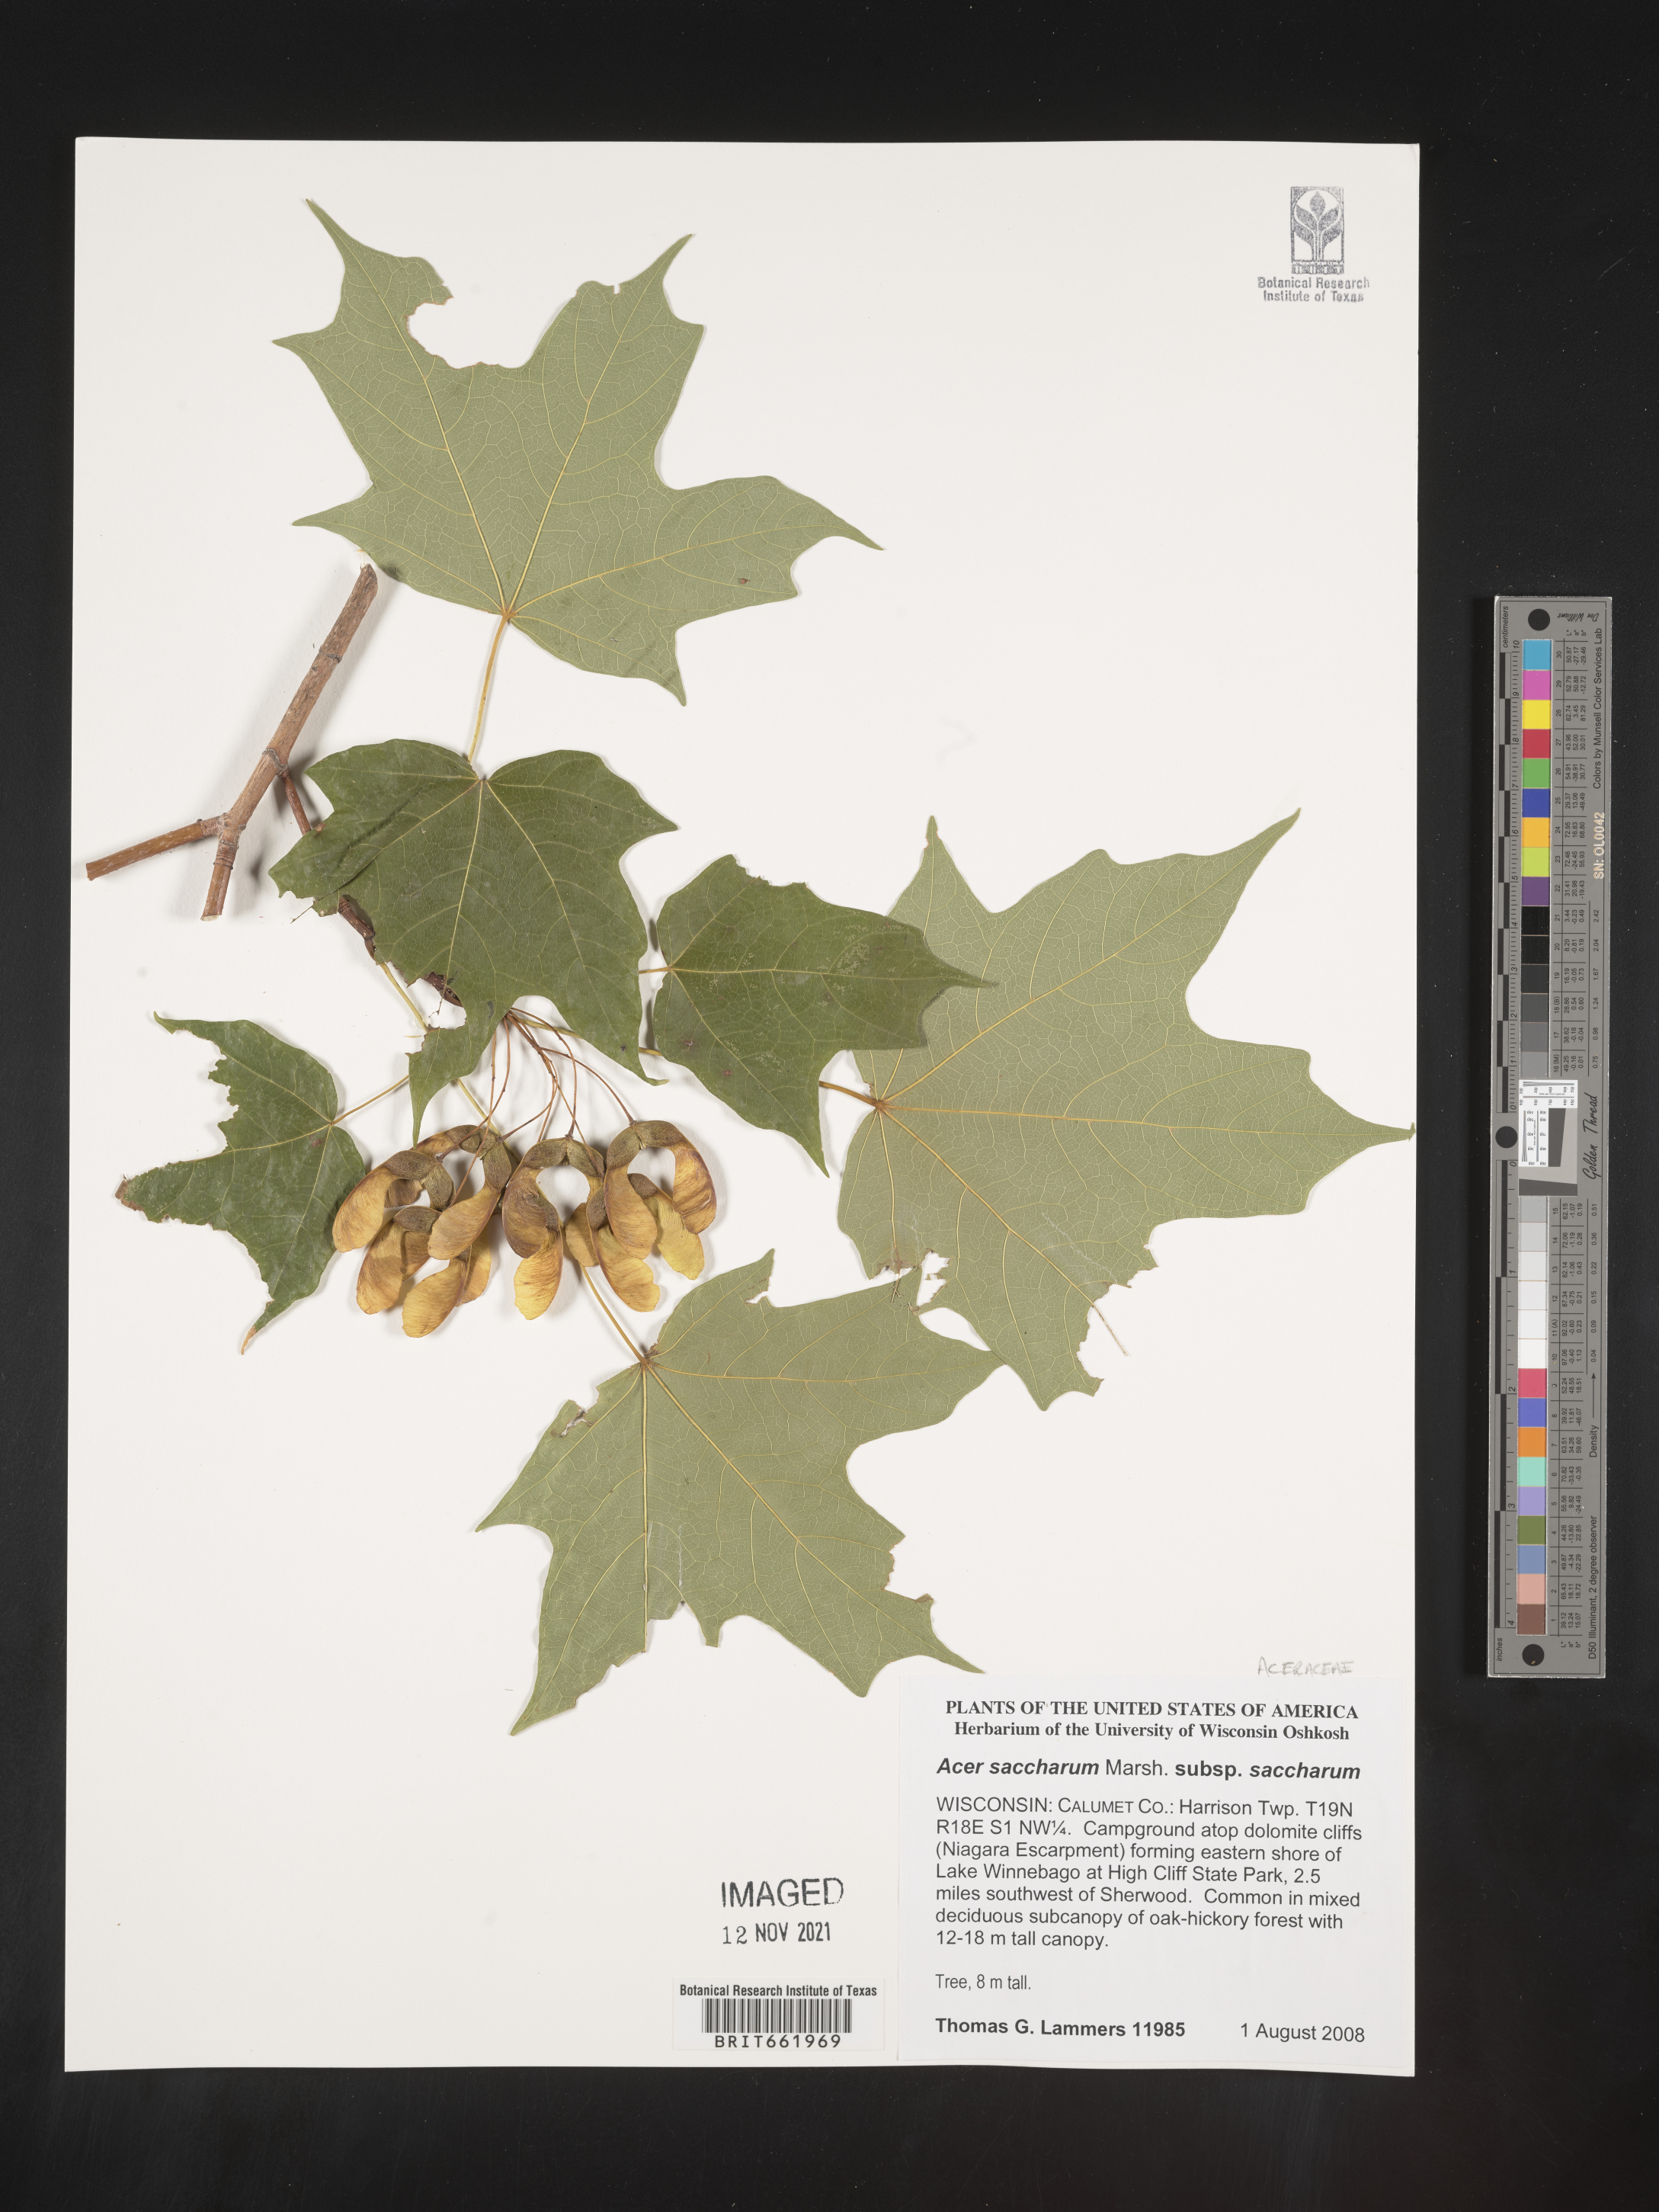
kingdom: Plantae
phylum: Tracheophyta
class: Magnoliopsida
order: Sapindales
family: Sapindaceae
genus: Acer
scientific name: Acer saccharum
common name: Sugar maple
